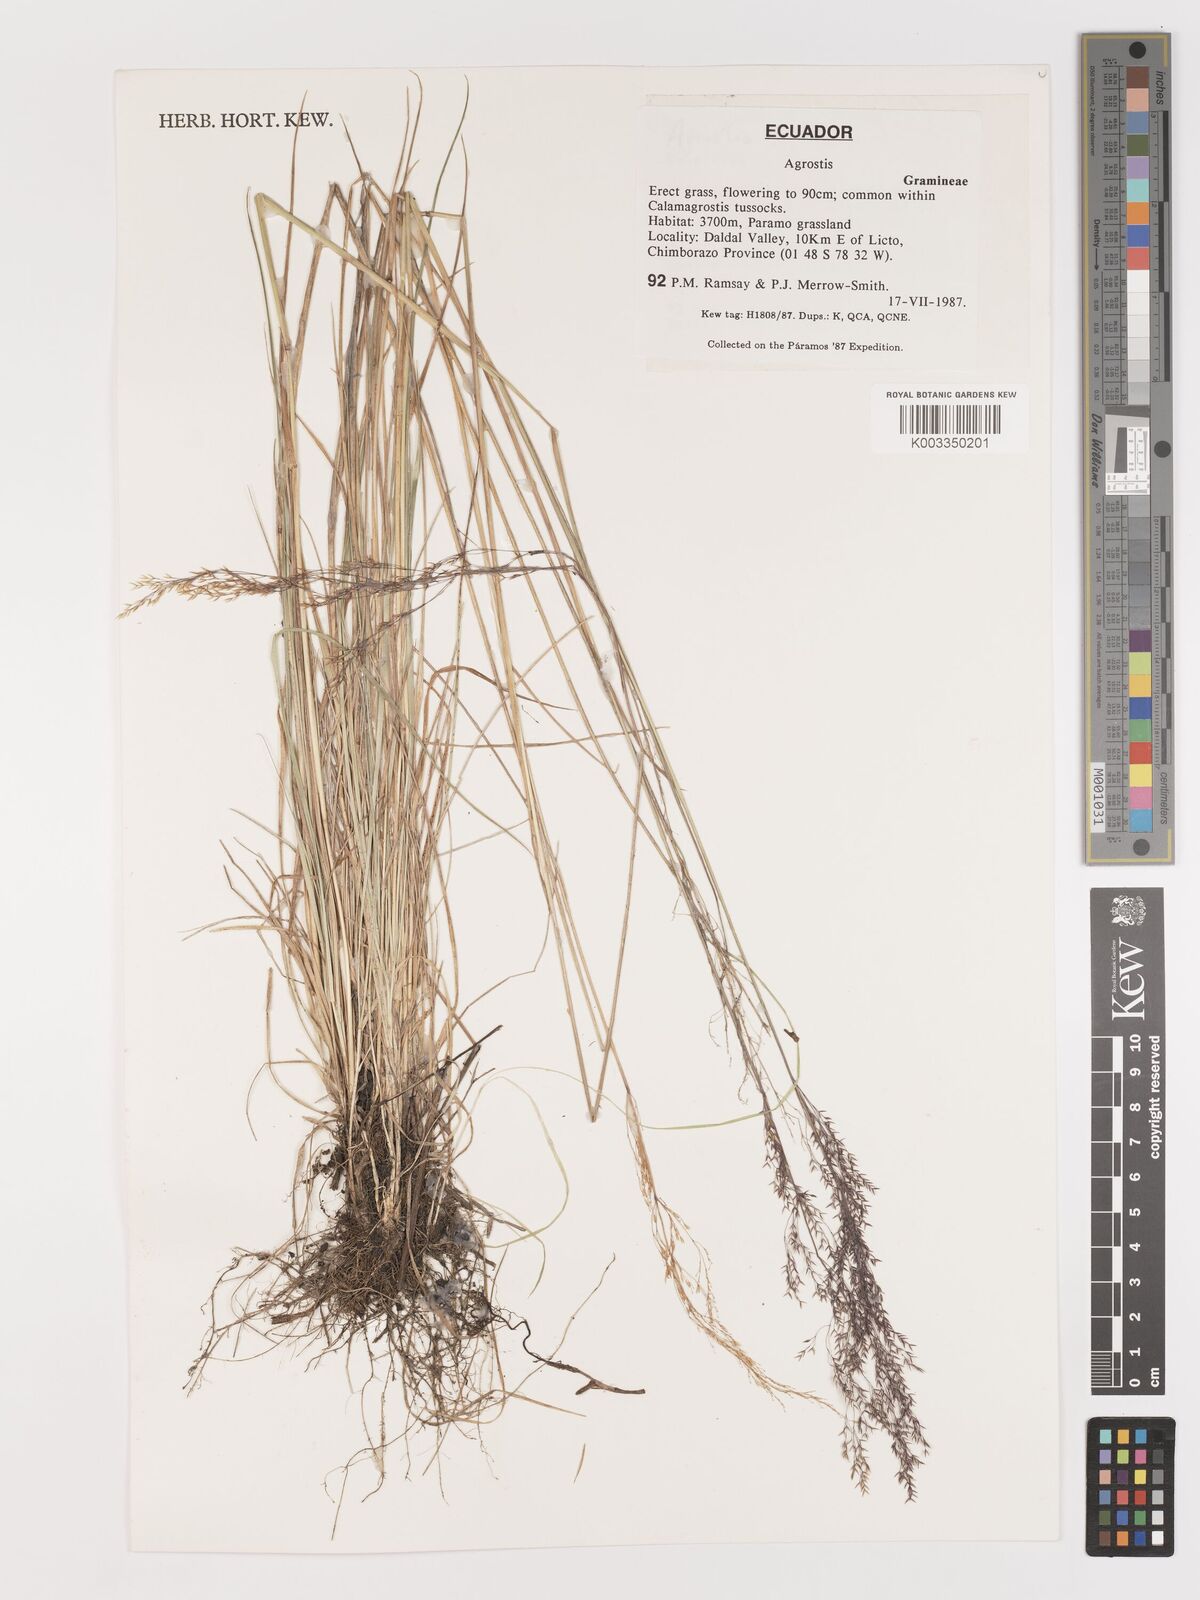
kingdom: Plantae
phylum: Tracheophyta
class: Liliopsida
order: Poales
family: Poaceae
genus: Agrostis
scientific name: Agrostis
